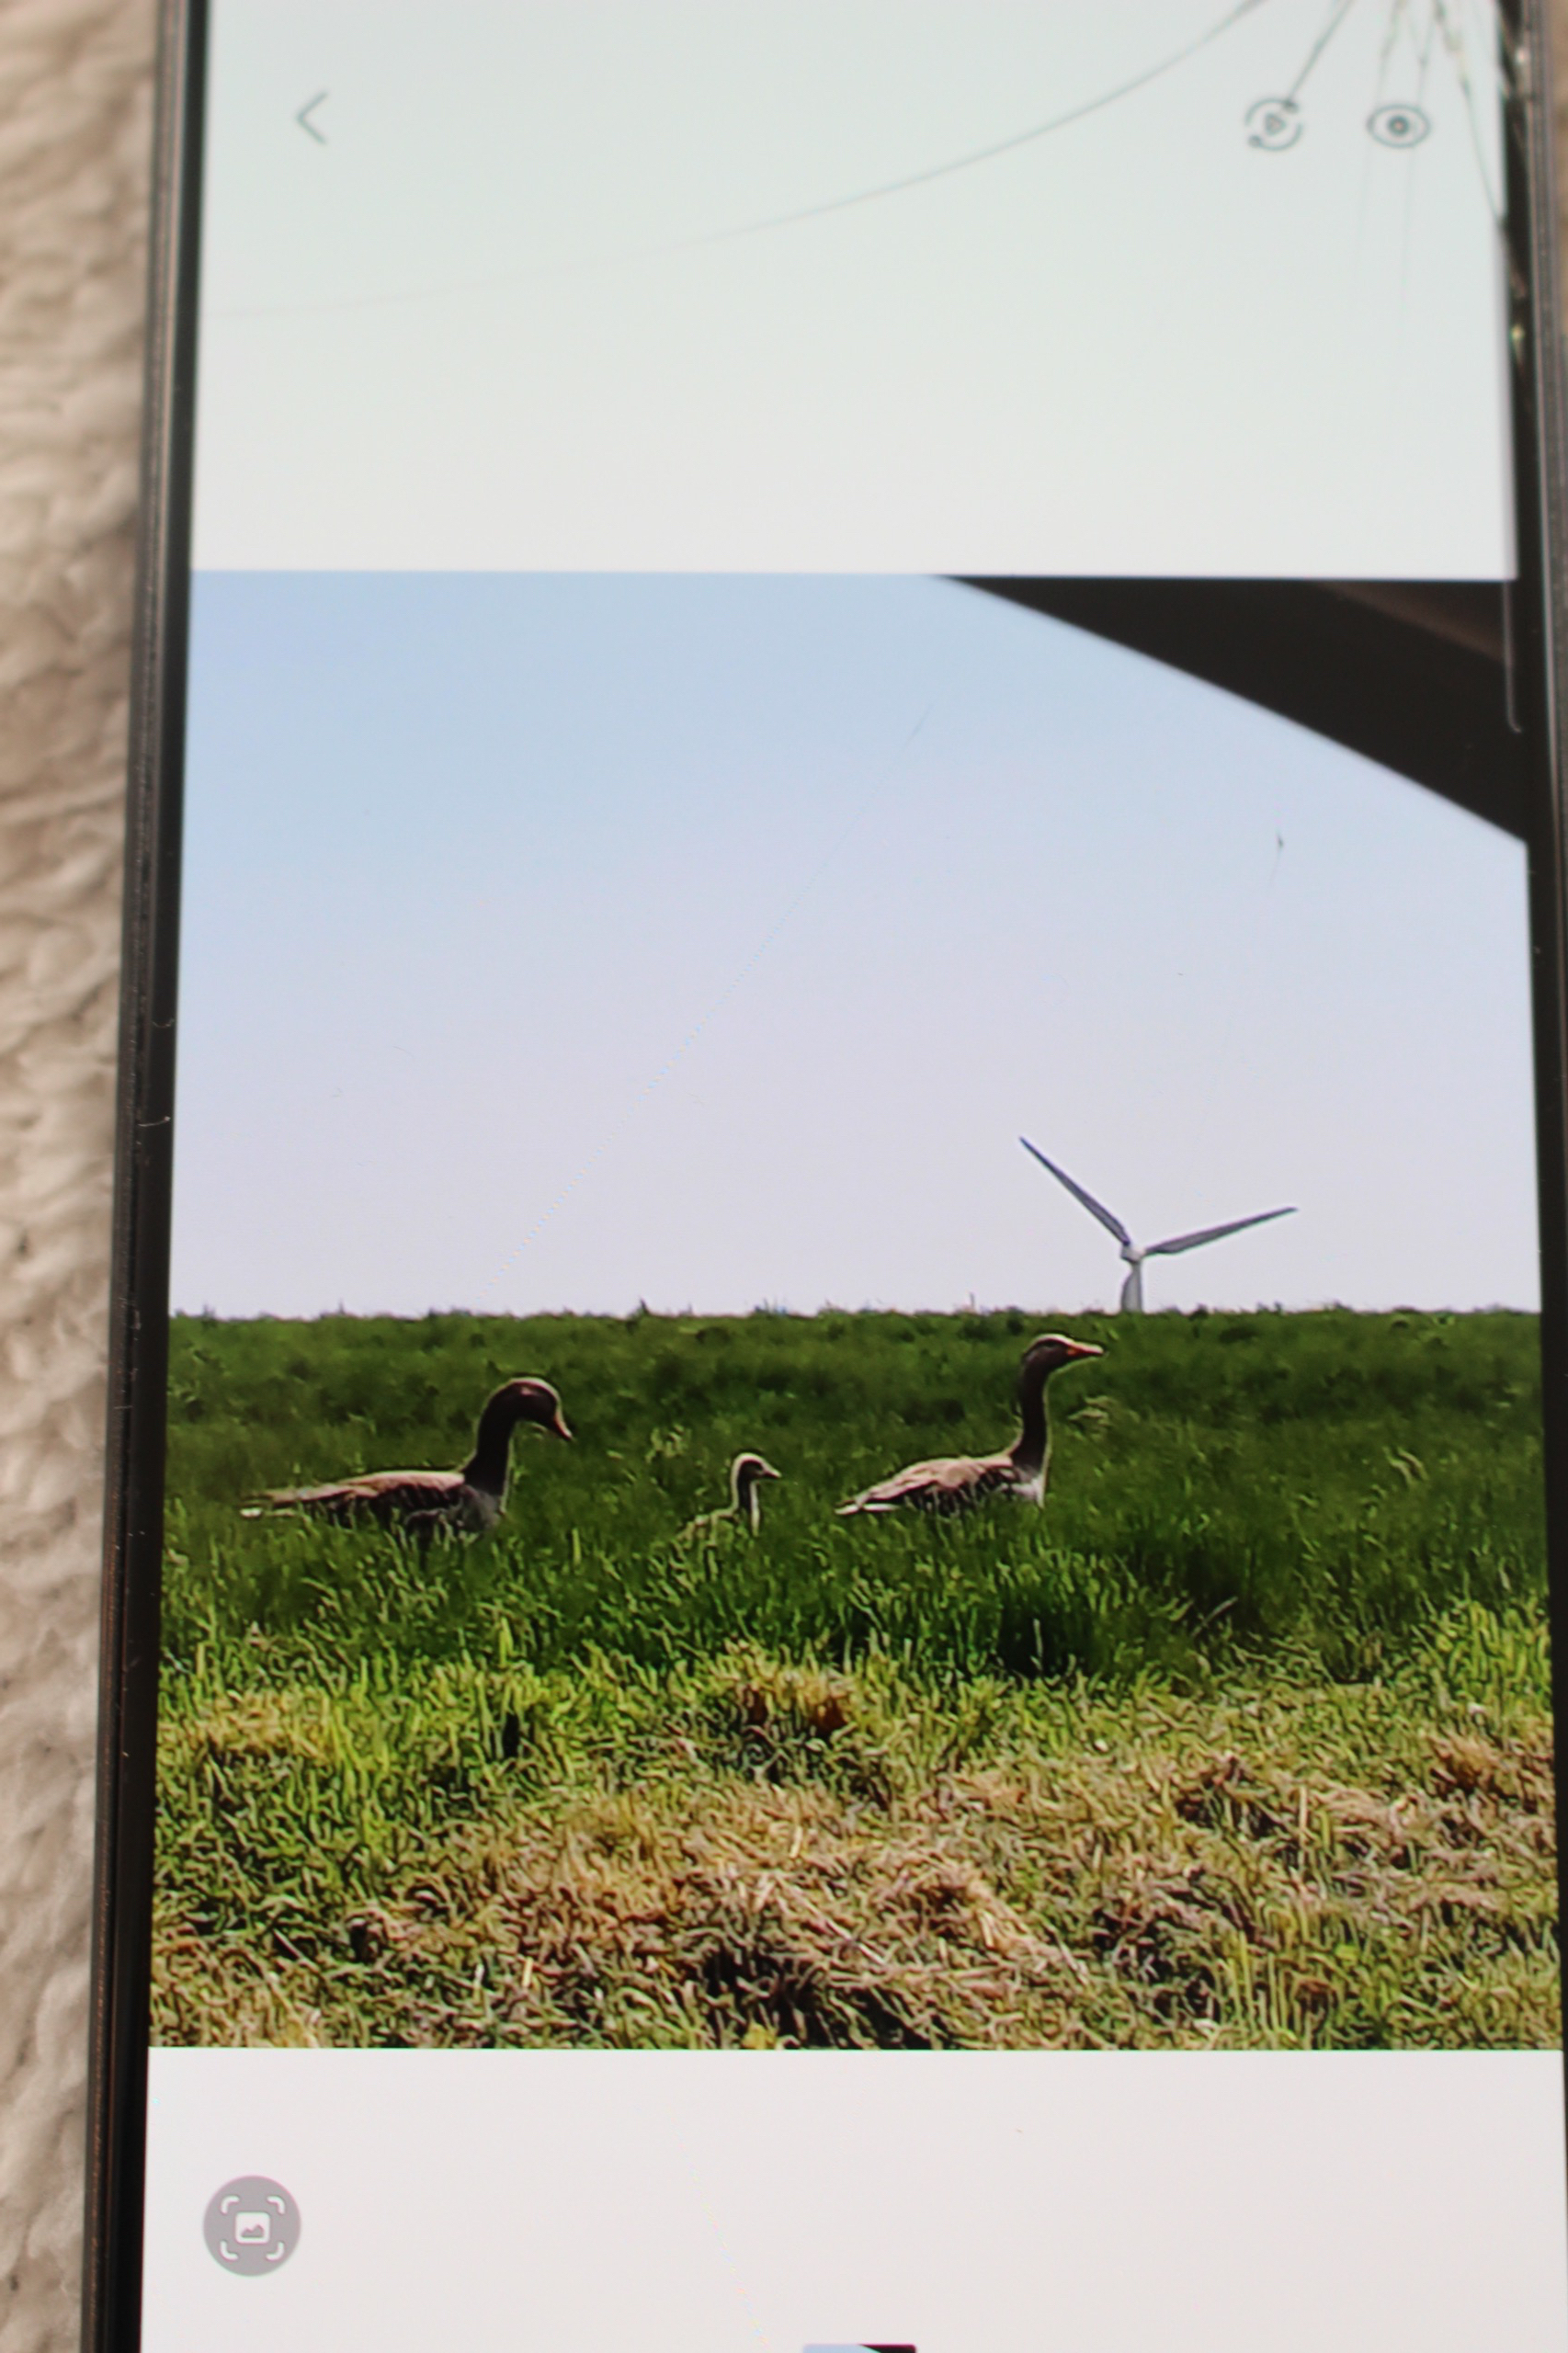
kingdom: Animalia
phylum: Chordata
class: Aves
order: Anseriformes
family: Anatidae
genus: Anser
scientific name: Anser anser
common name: Grågås
